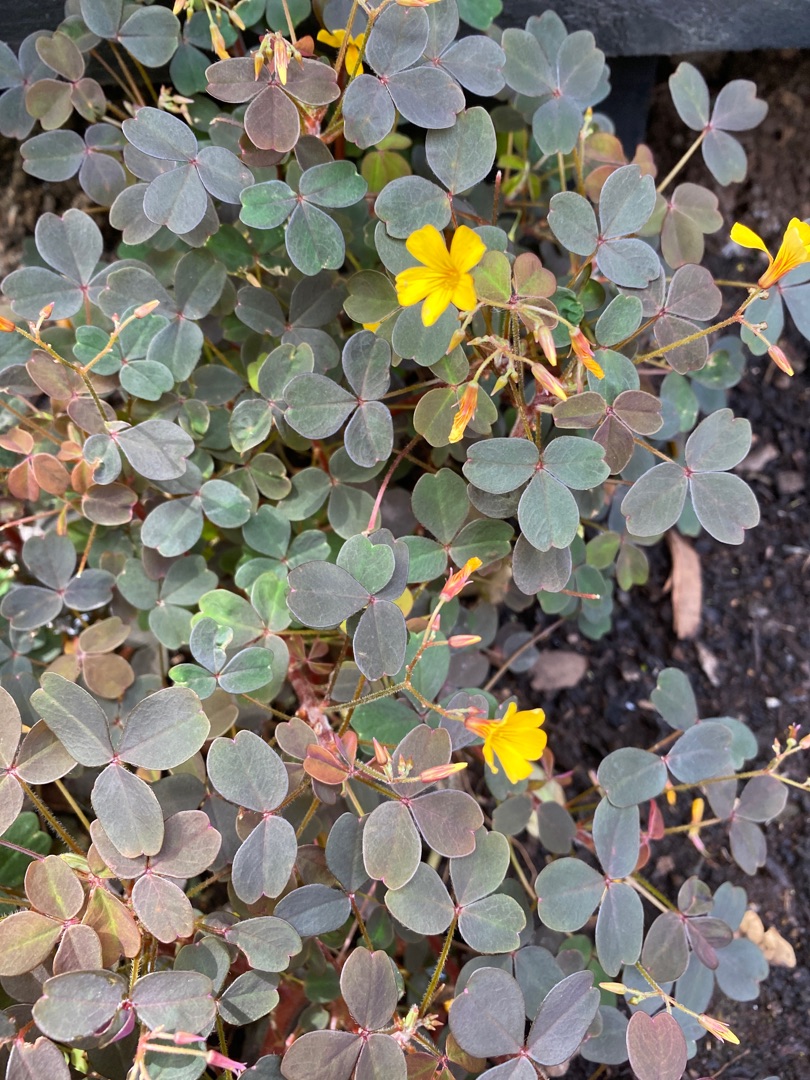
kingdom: Plantae
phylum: Tracheophyta
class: Magnoliopsida
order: Oxalidales
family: Oxalidaceae
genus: Oxalis
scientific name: Oxalis corniculata
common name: Nedliggende surkløver
